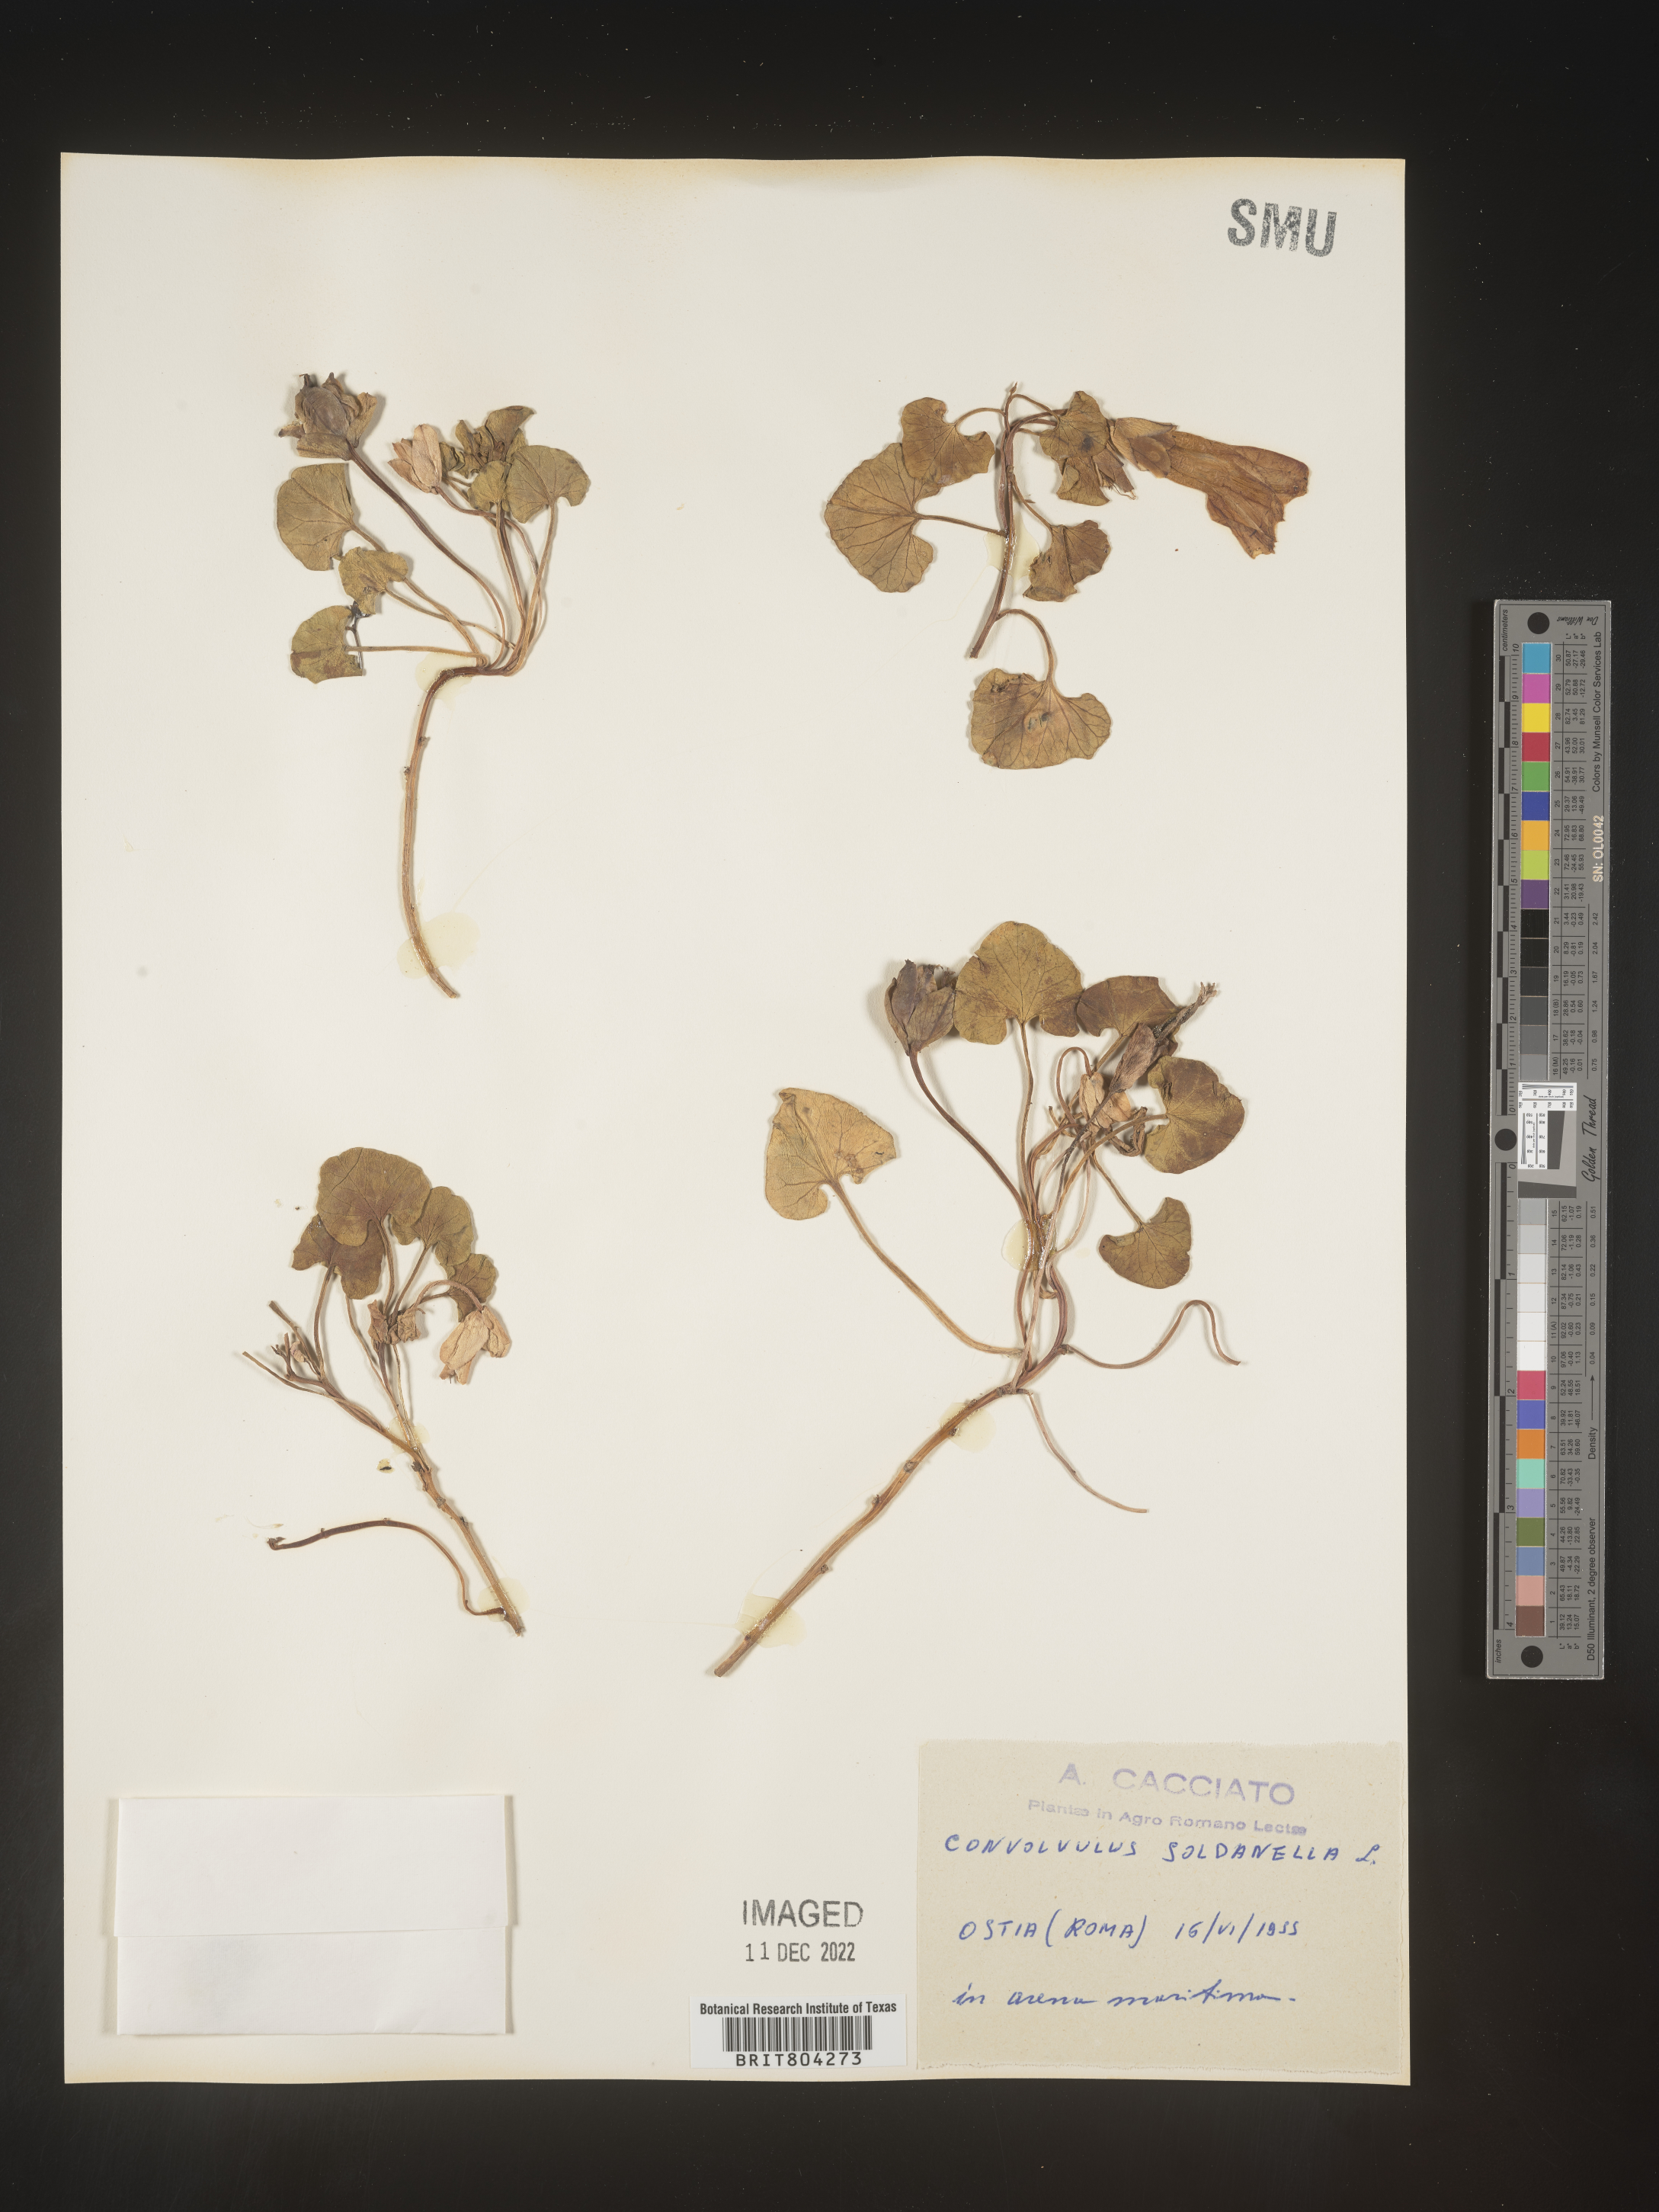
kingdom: Plantae
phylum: Tracheophyta
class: Magnoliopsida
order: Solanales
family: Convolvulaceae
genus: Calystegia
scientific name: Calystegia
